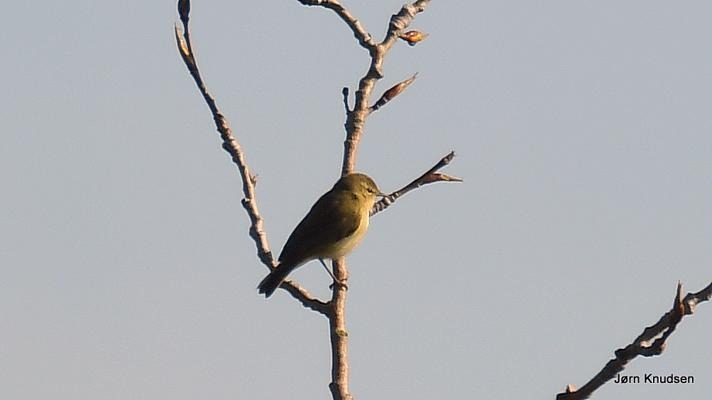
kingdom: Animalia
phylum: Chordata
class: Aves
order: Passeriformes
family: Phylloscopidae
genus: Phylloscopus
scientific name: Phylloscopus collybita
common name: Gransanger
